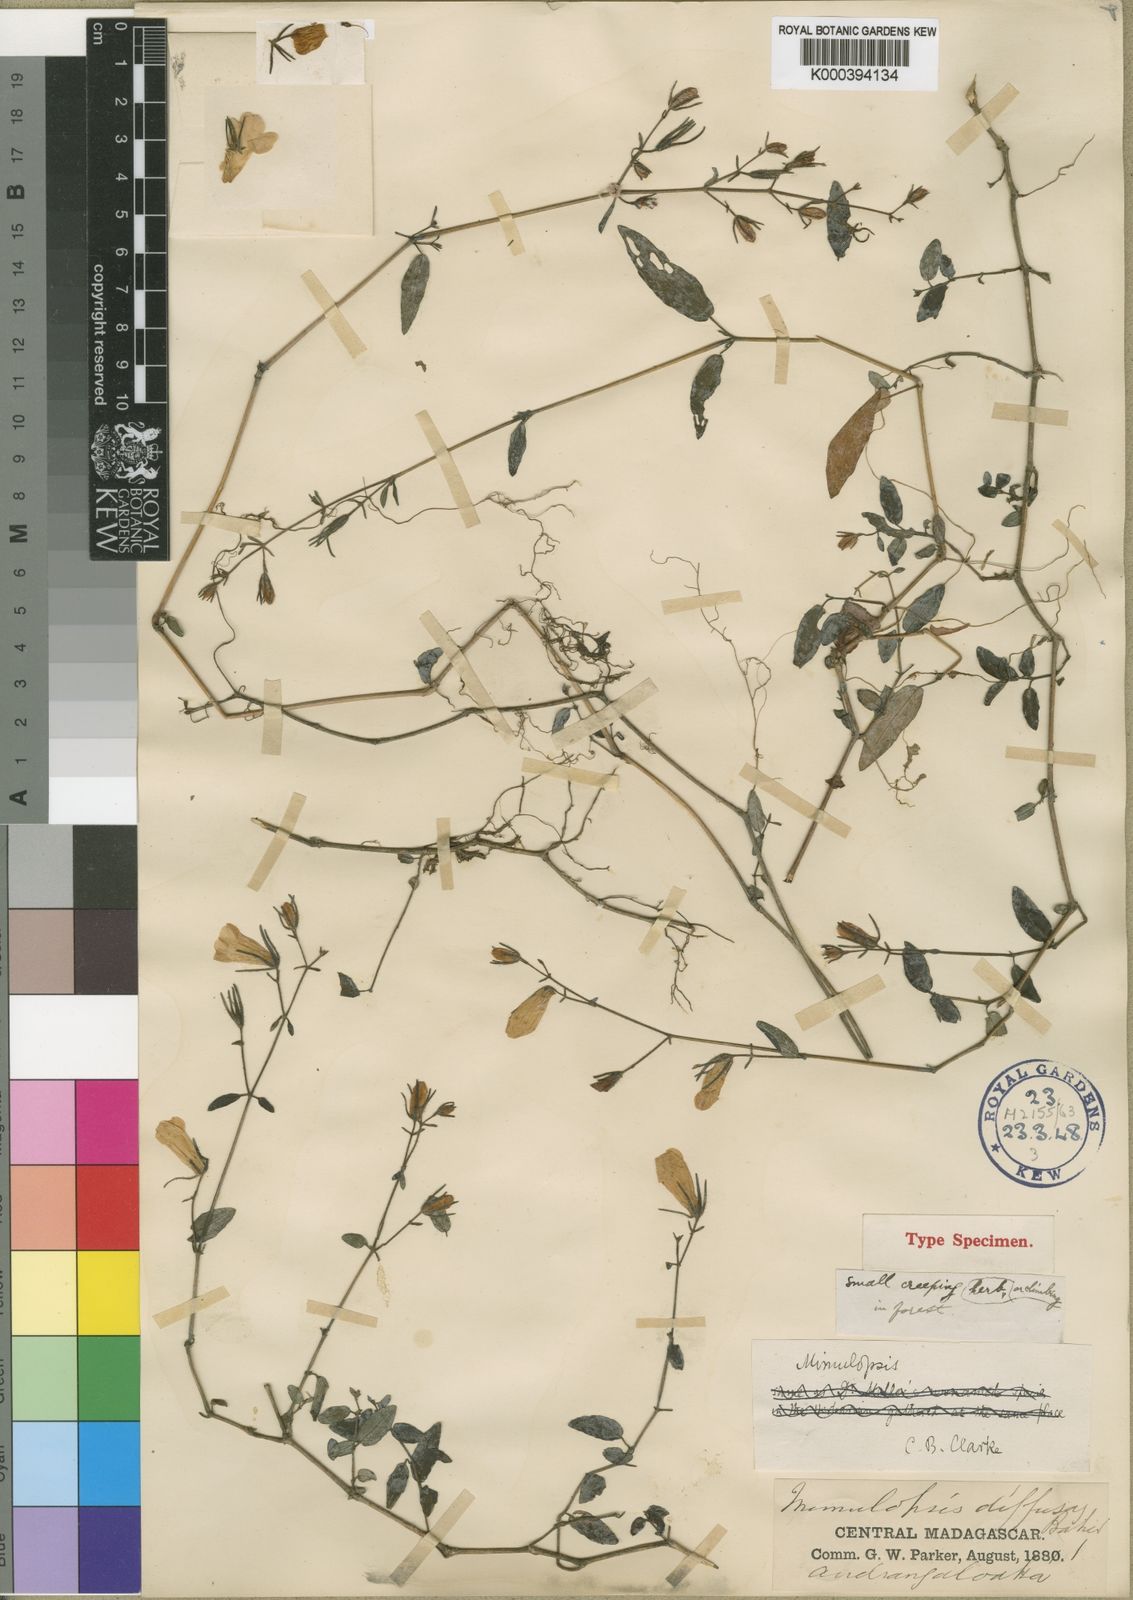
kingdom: Plantae
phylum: Tracheophyta
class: Magnoliopsida
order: Lamiales
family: Acanthaceae
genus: Mimulopsis
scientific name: Mimulopsis
